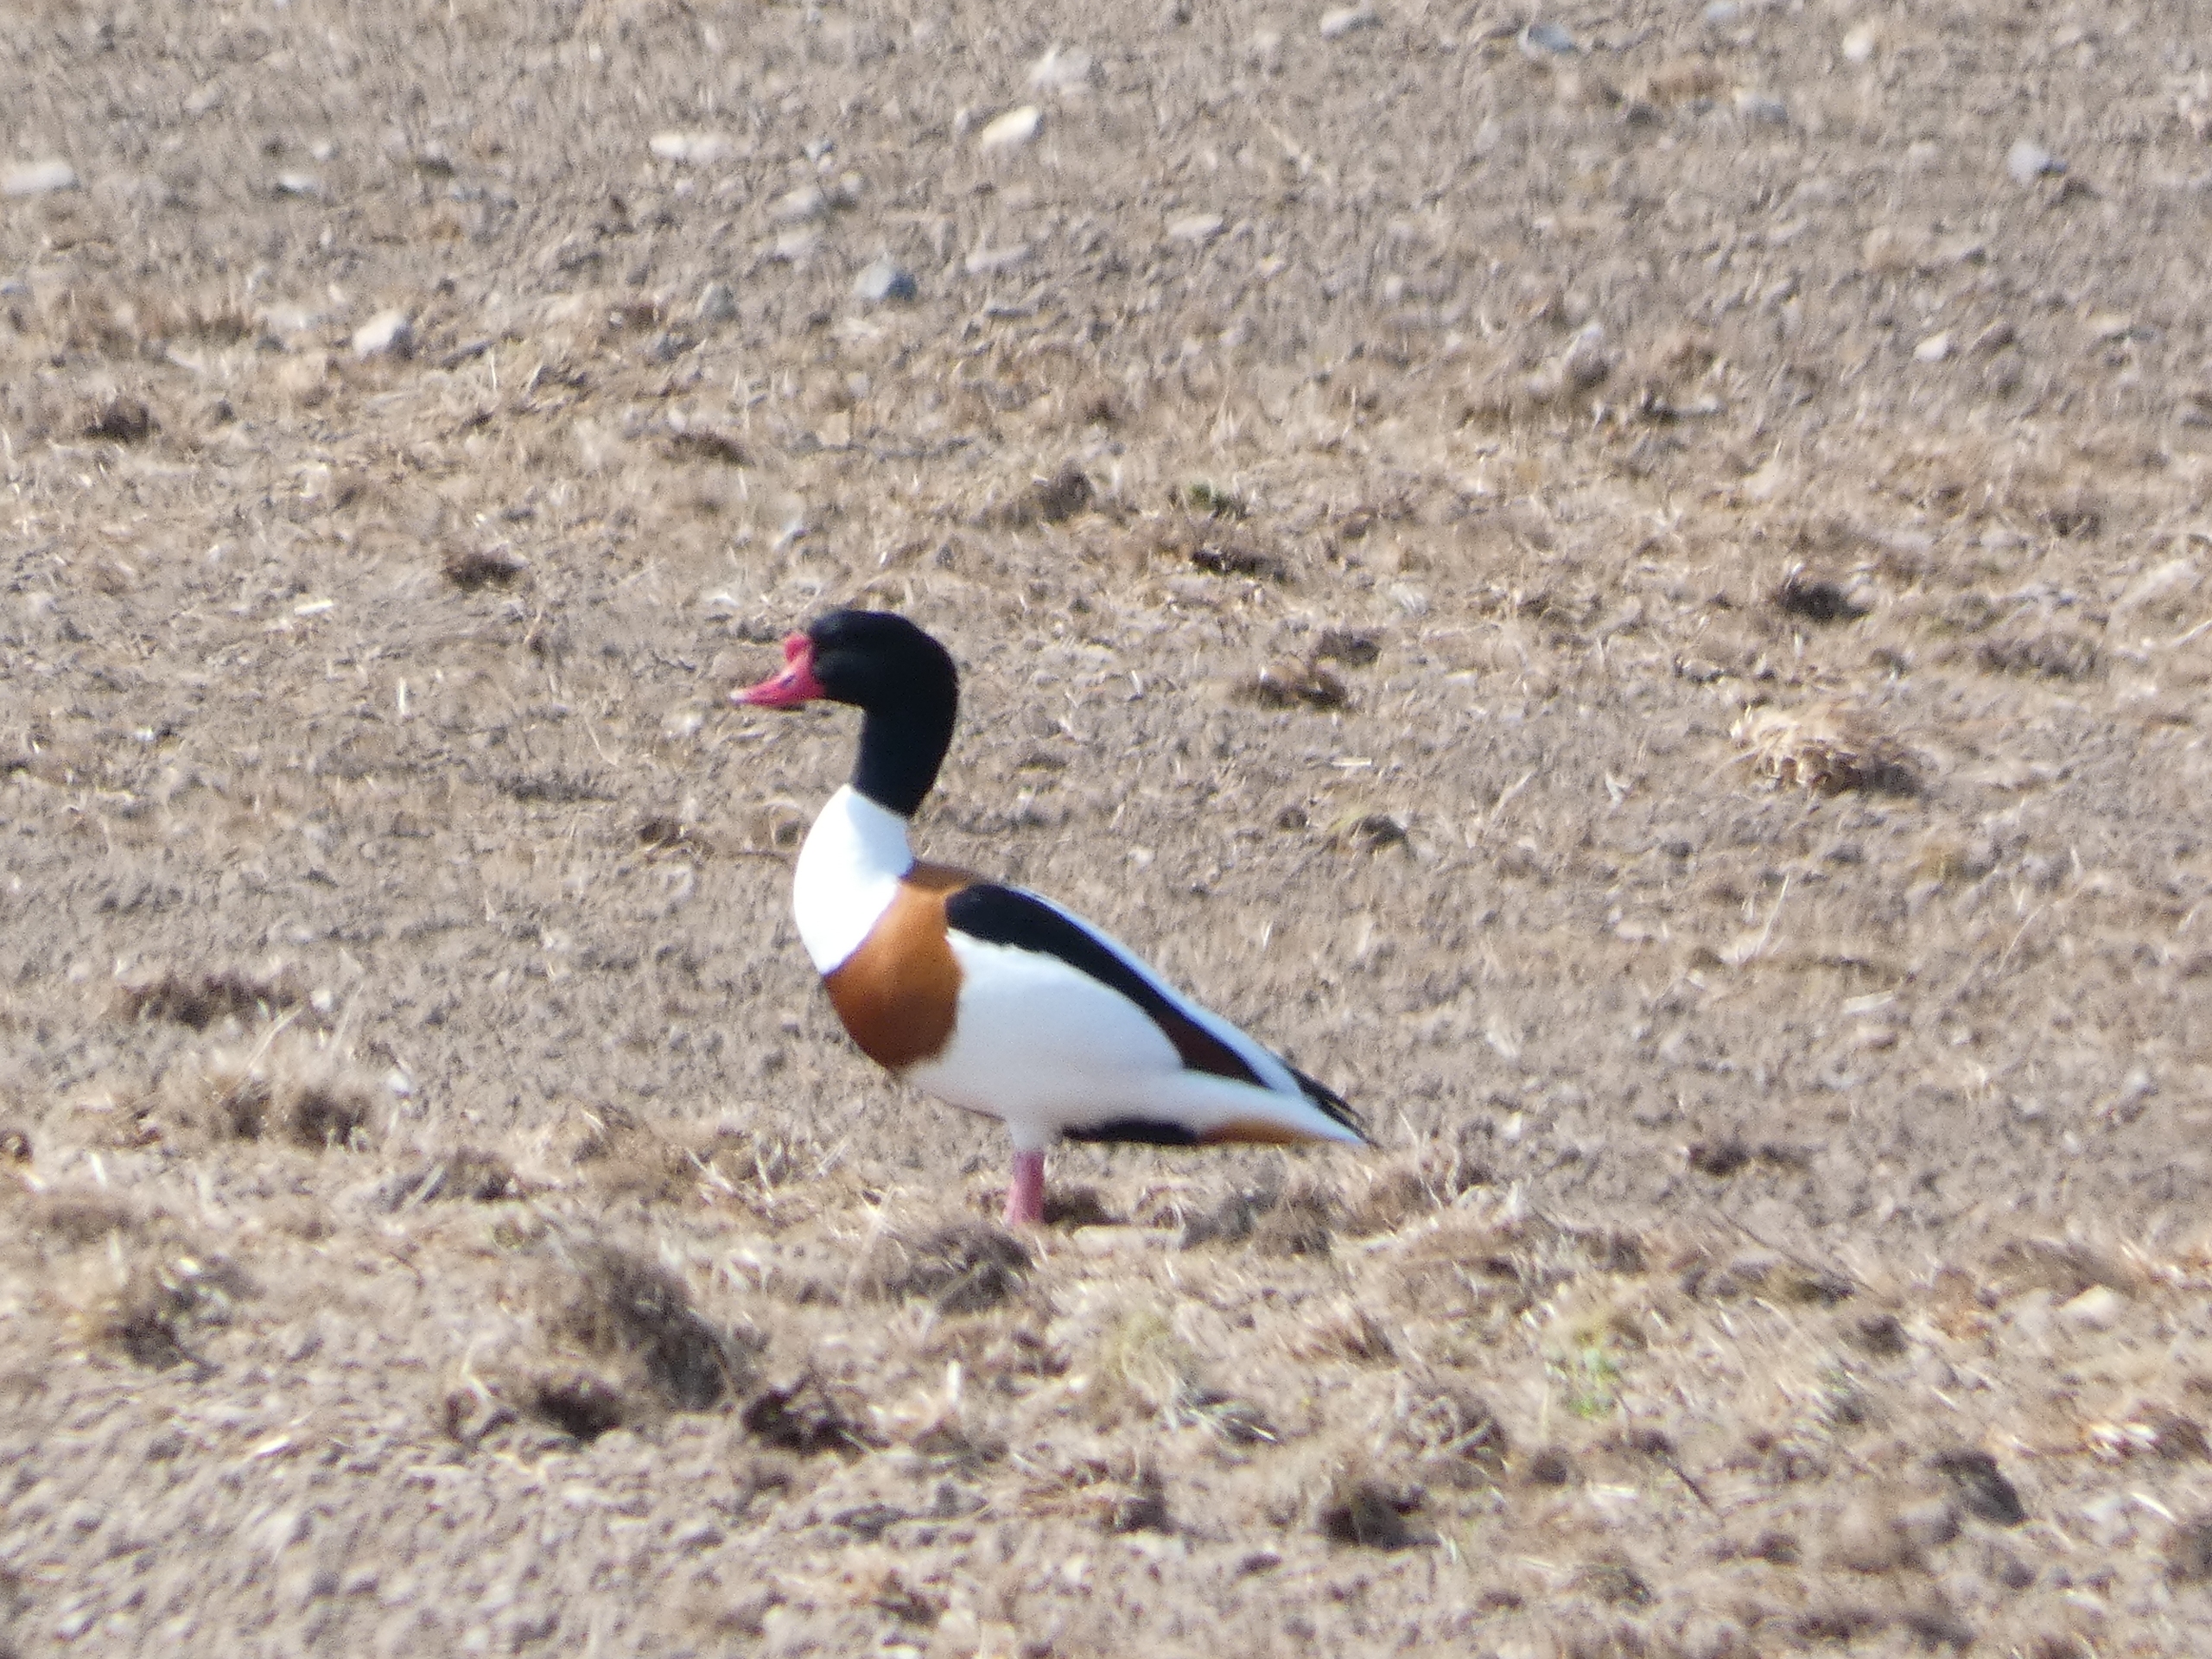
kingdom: Animalia
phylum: Chordata
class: Aves
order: Anseriformes
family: Anatidae
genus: Tadorna
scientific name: Tadorna tadorna
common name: Gravand
